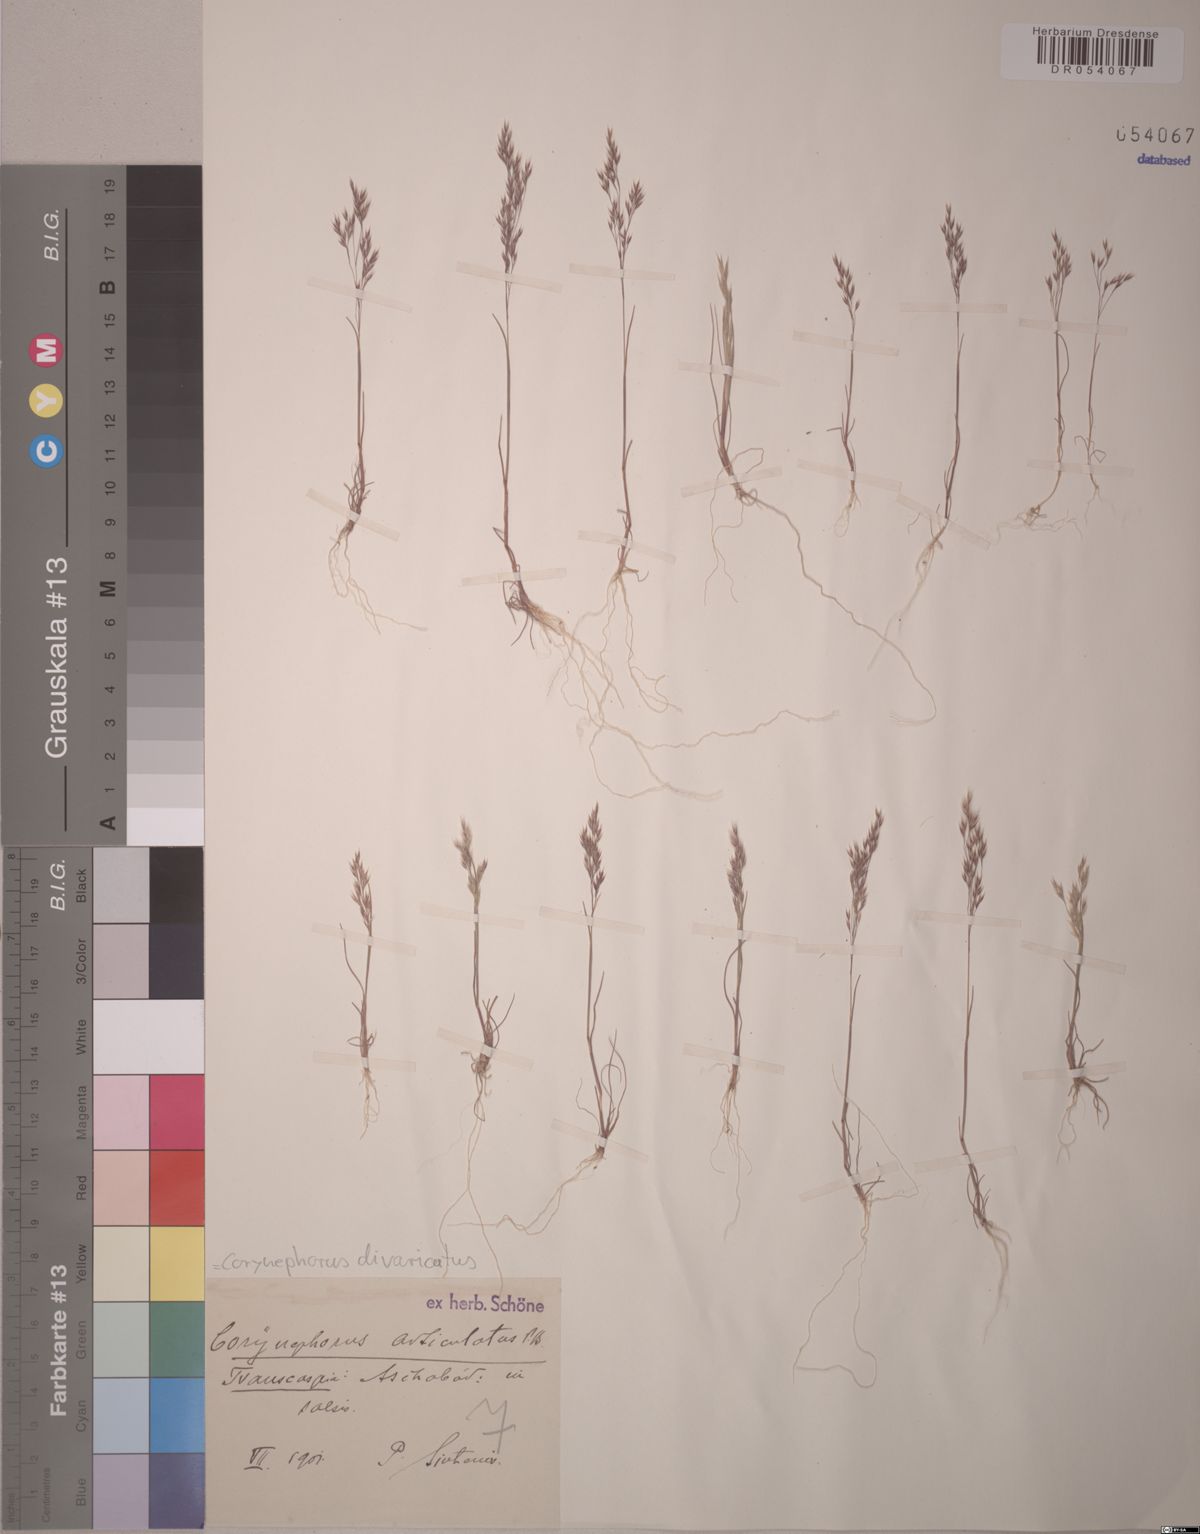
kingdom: Plantae
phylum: Tracheophyta
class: Liliopsida
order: Poales
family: Poaceae
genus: Corynephorus
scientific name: Corynephorus divaricatus
